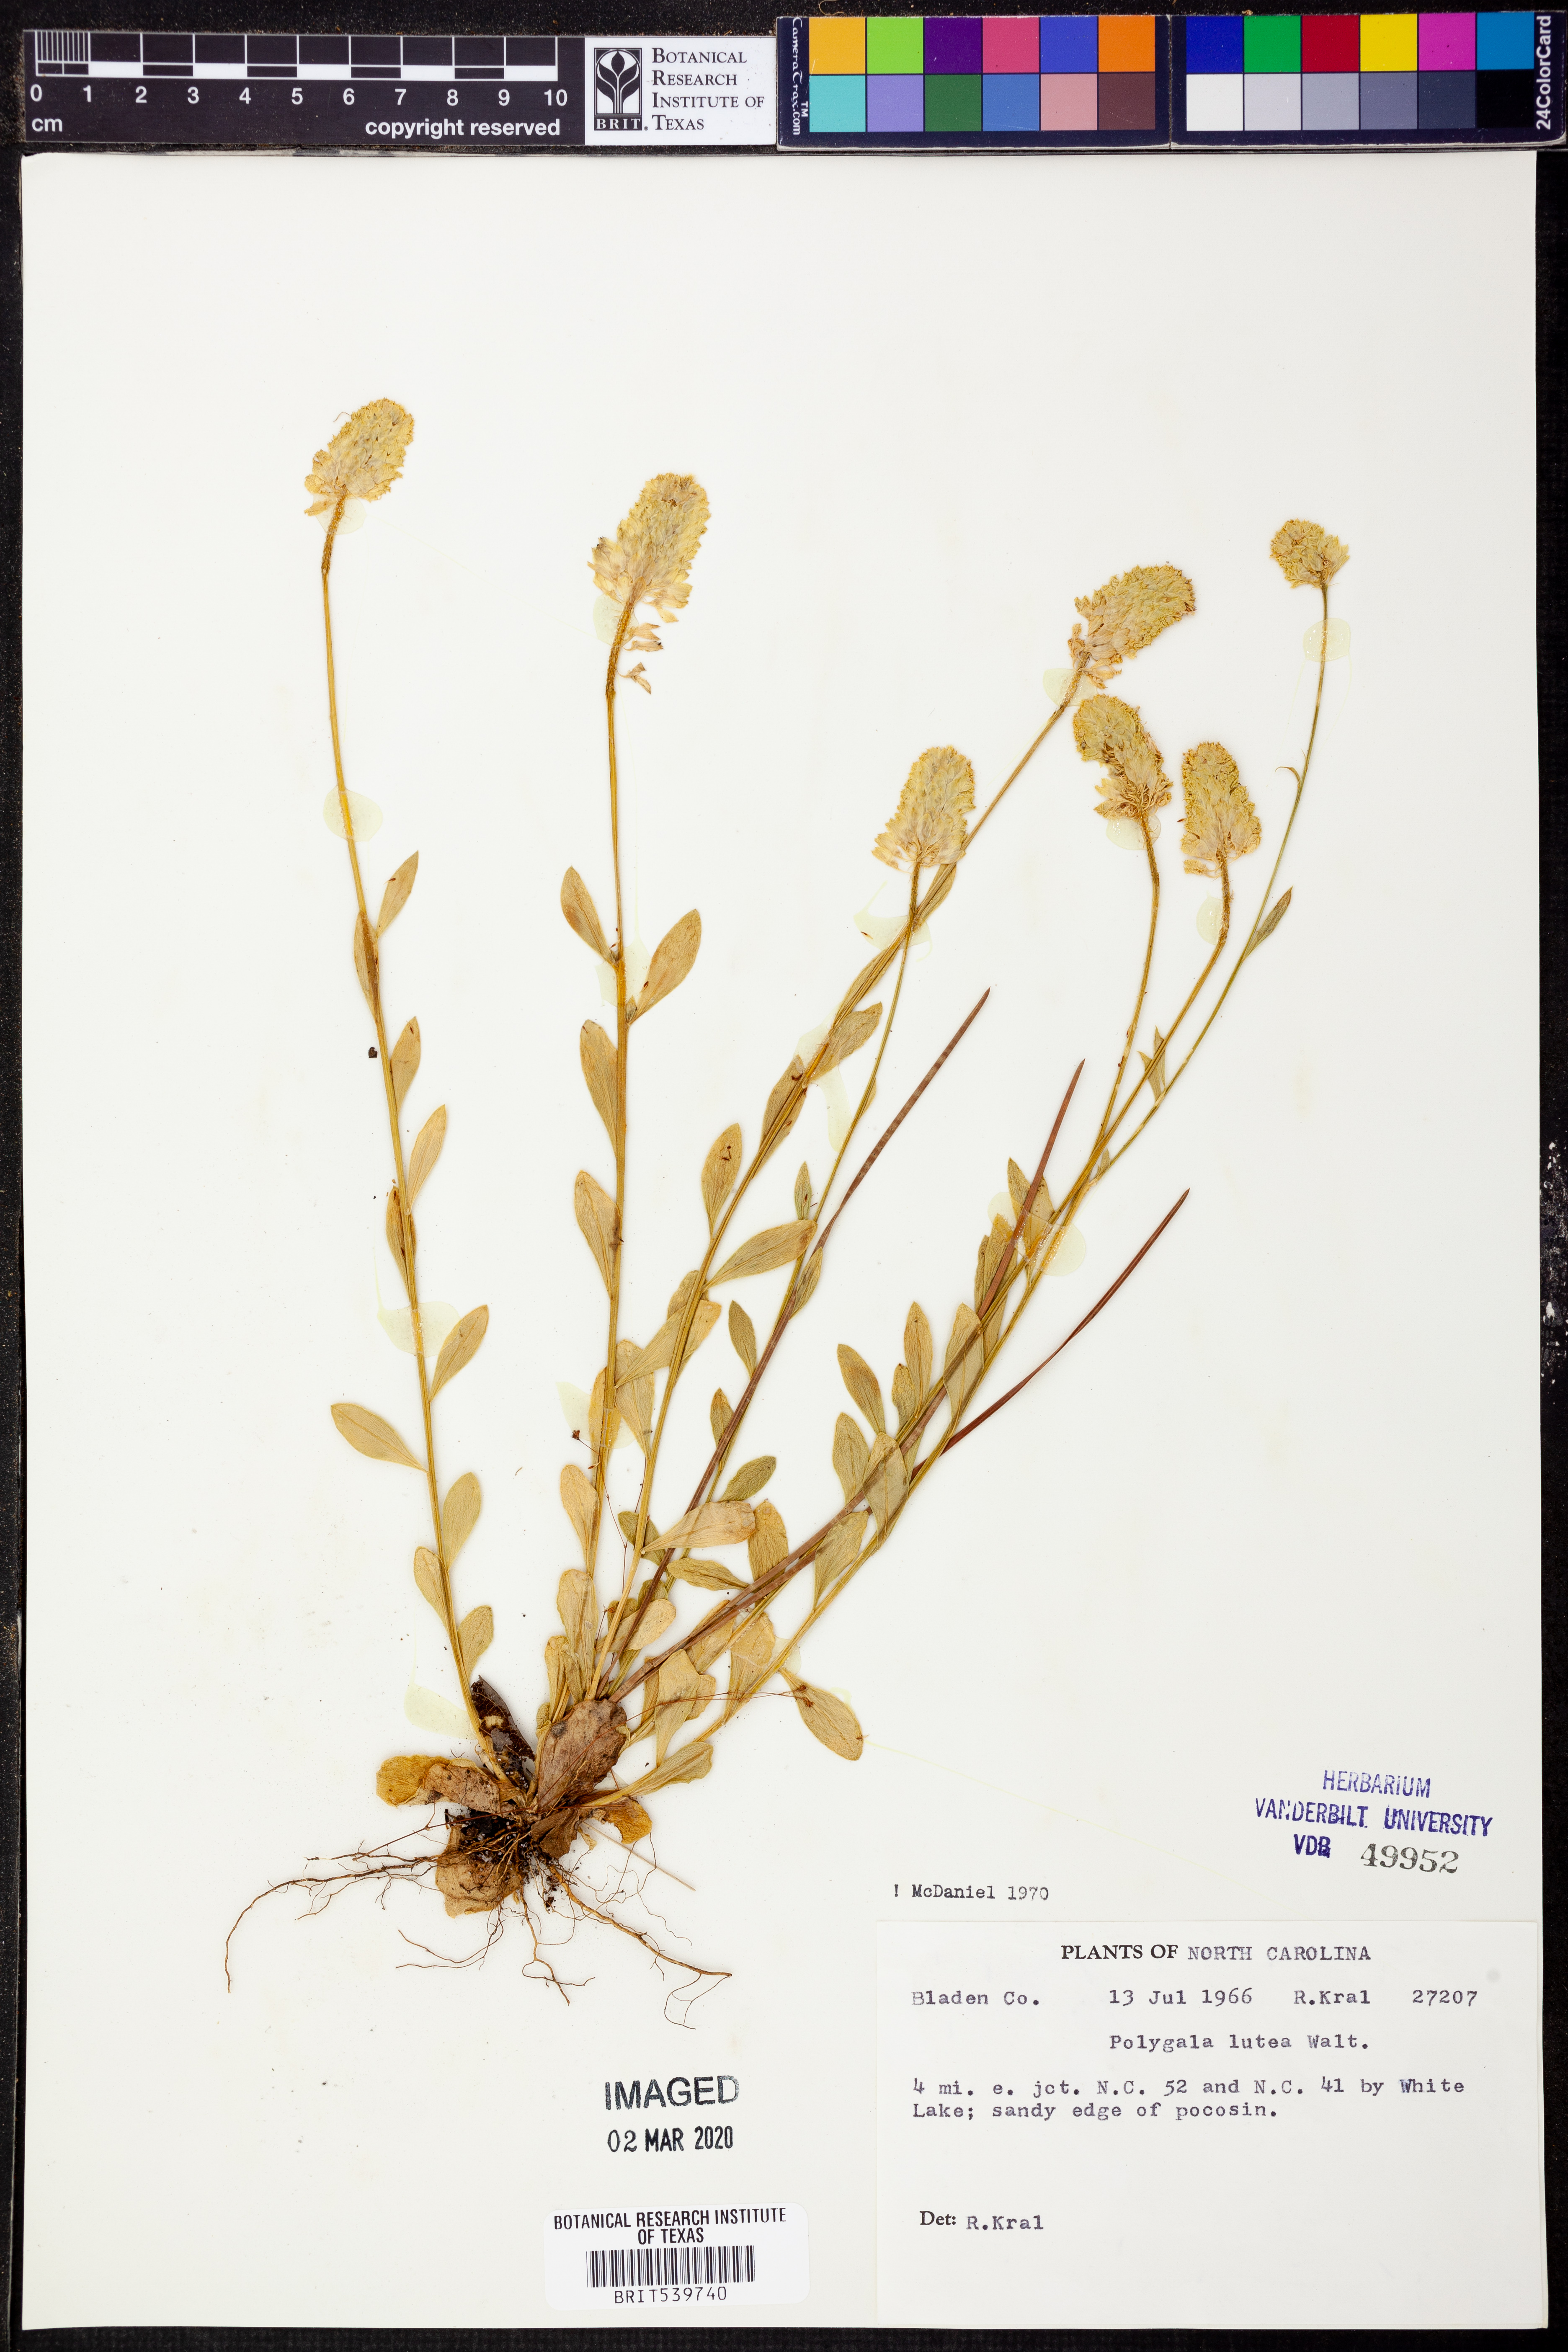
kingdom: Plantae
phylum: Tracheophyta
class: Magnoliopsida
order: Fabales
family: Polygalaceae
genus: Polygala
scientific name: Polygala lutea
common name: Orange milkwort
